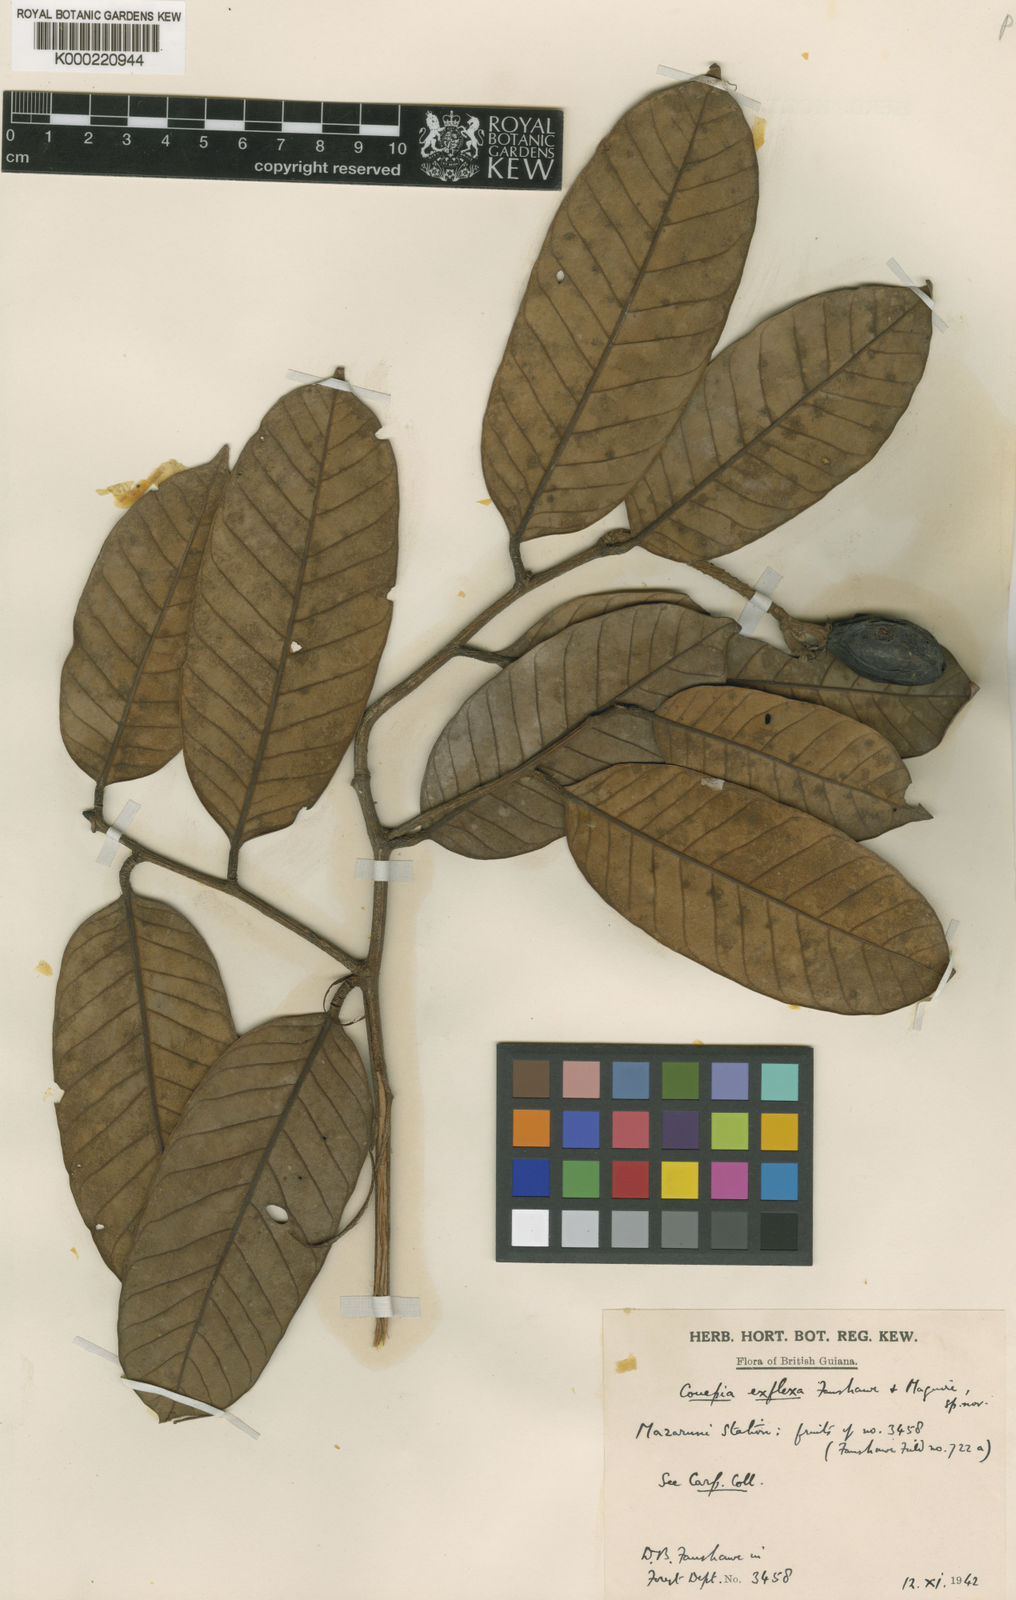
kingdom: Plantae
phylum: Tracheophyta
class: Magnoliopsida
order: Malpighiales
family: Chrysobalanaceae
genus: Couepia
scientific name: Couepia exflexa
